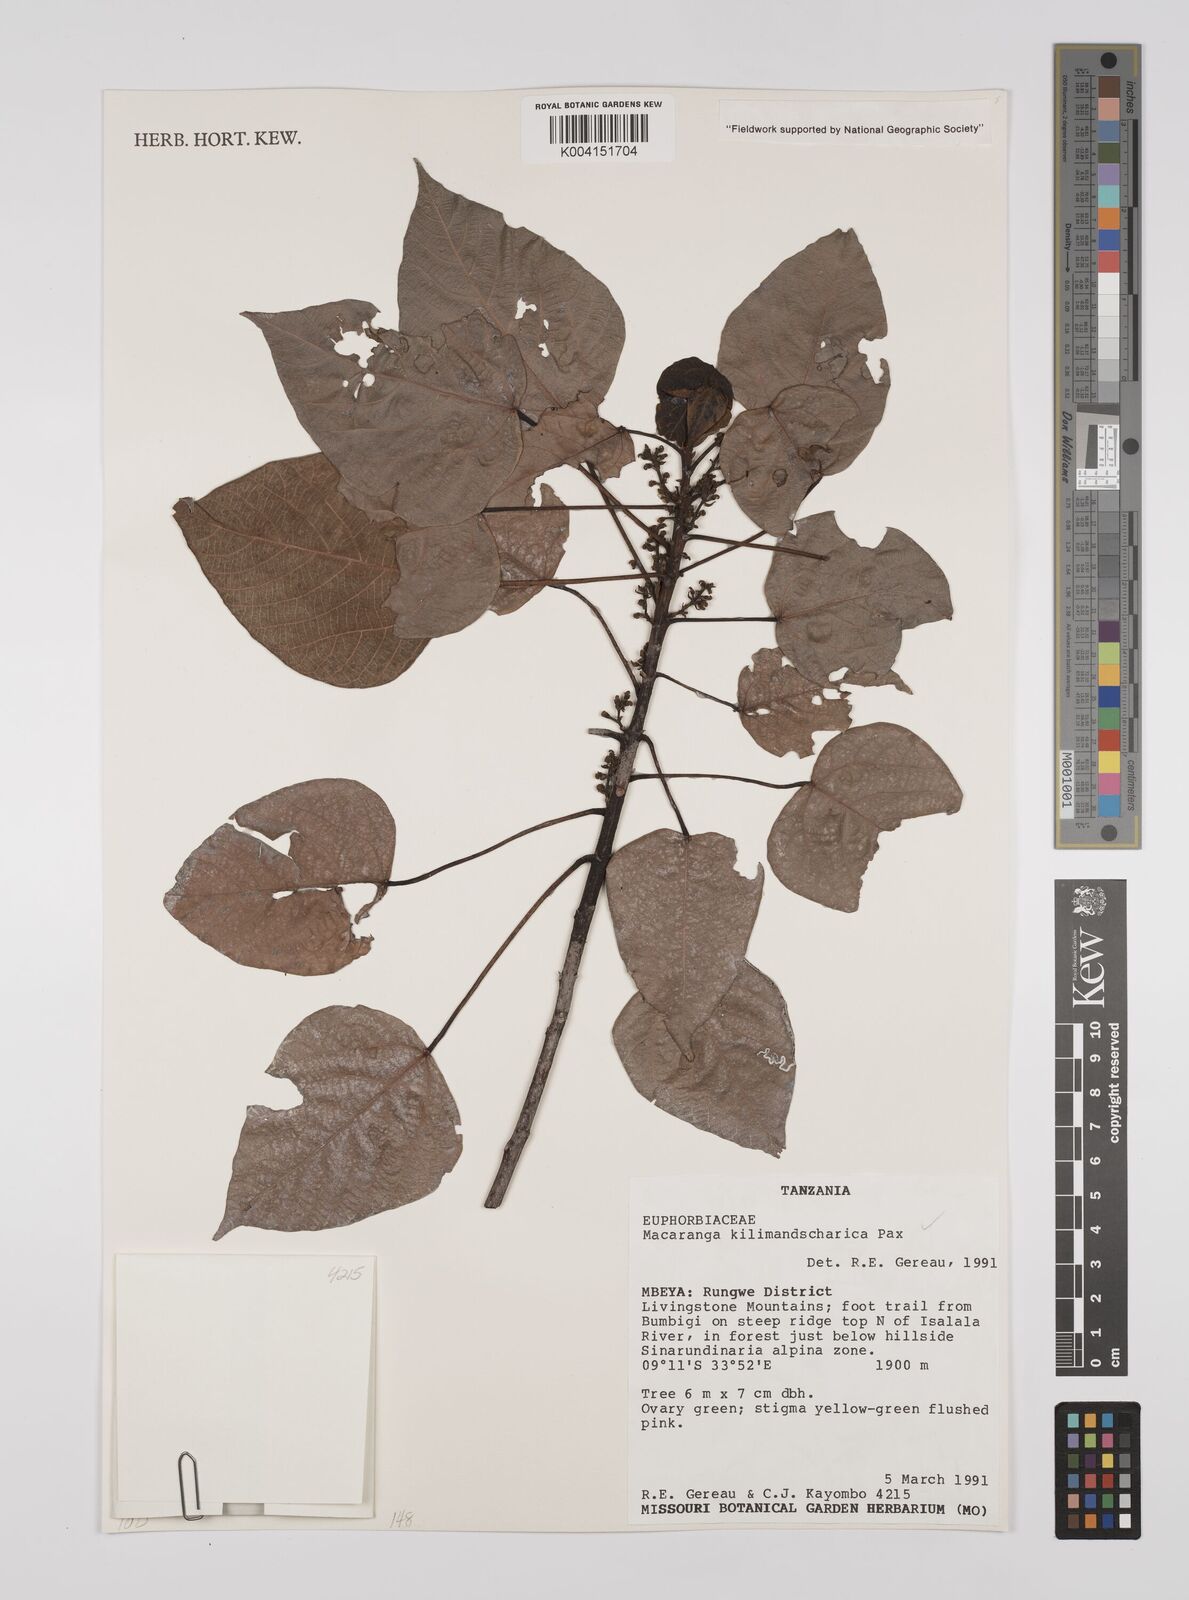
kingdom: Plantae
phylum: Tracheophyta
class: Magnoliopsida
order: Malpighiales
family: Euphorbiaceae
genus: Macaranga
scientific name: Macaranga kilimandscharica
